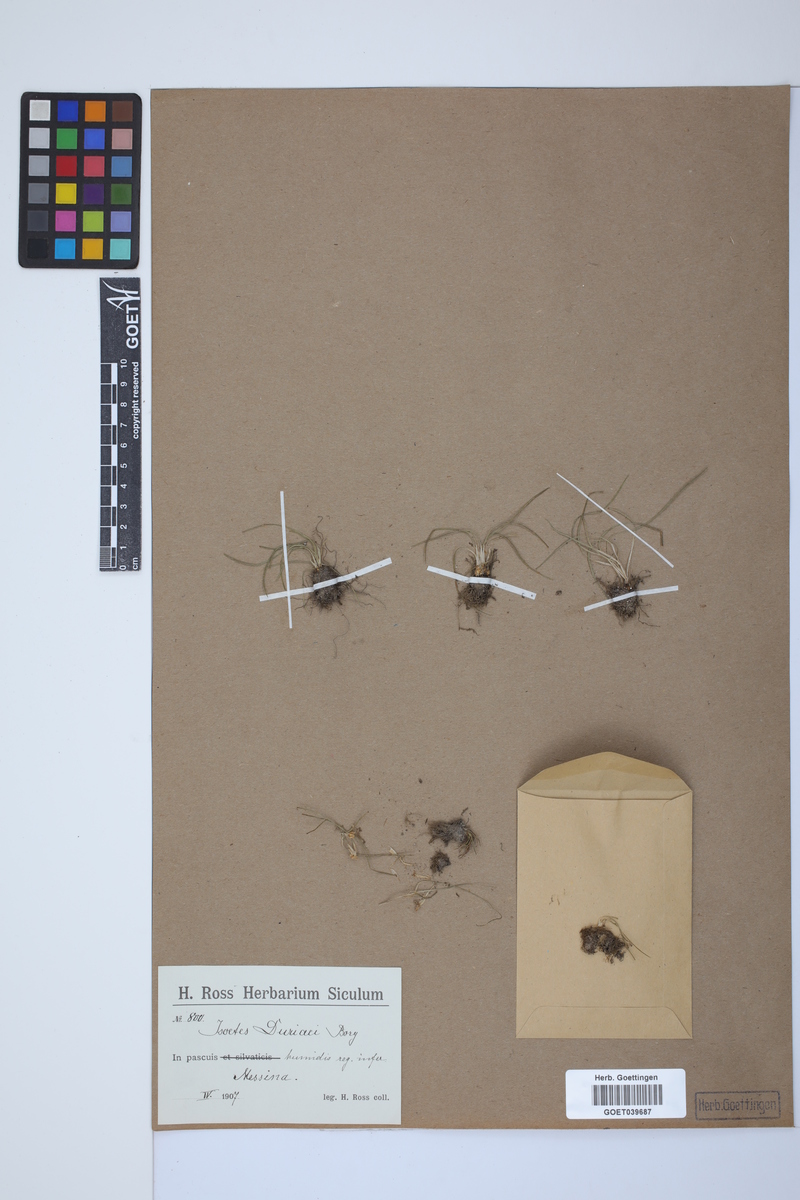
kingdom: Plantae
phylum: Tracheophyta
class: Lycopodiopsida
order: Isoetales
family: Isoetaceae
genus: Isoetes
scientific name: Isoetes duriei
